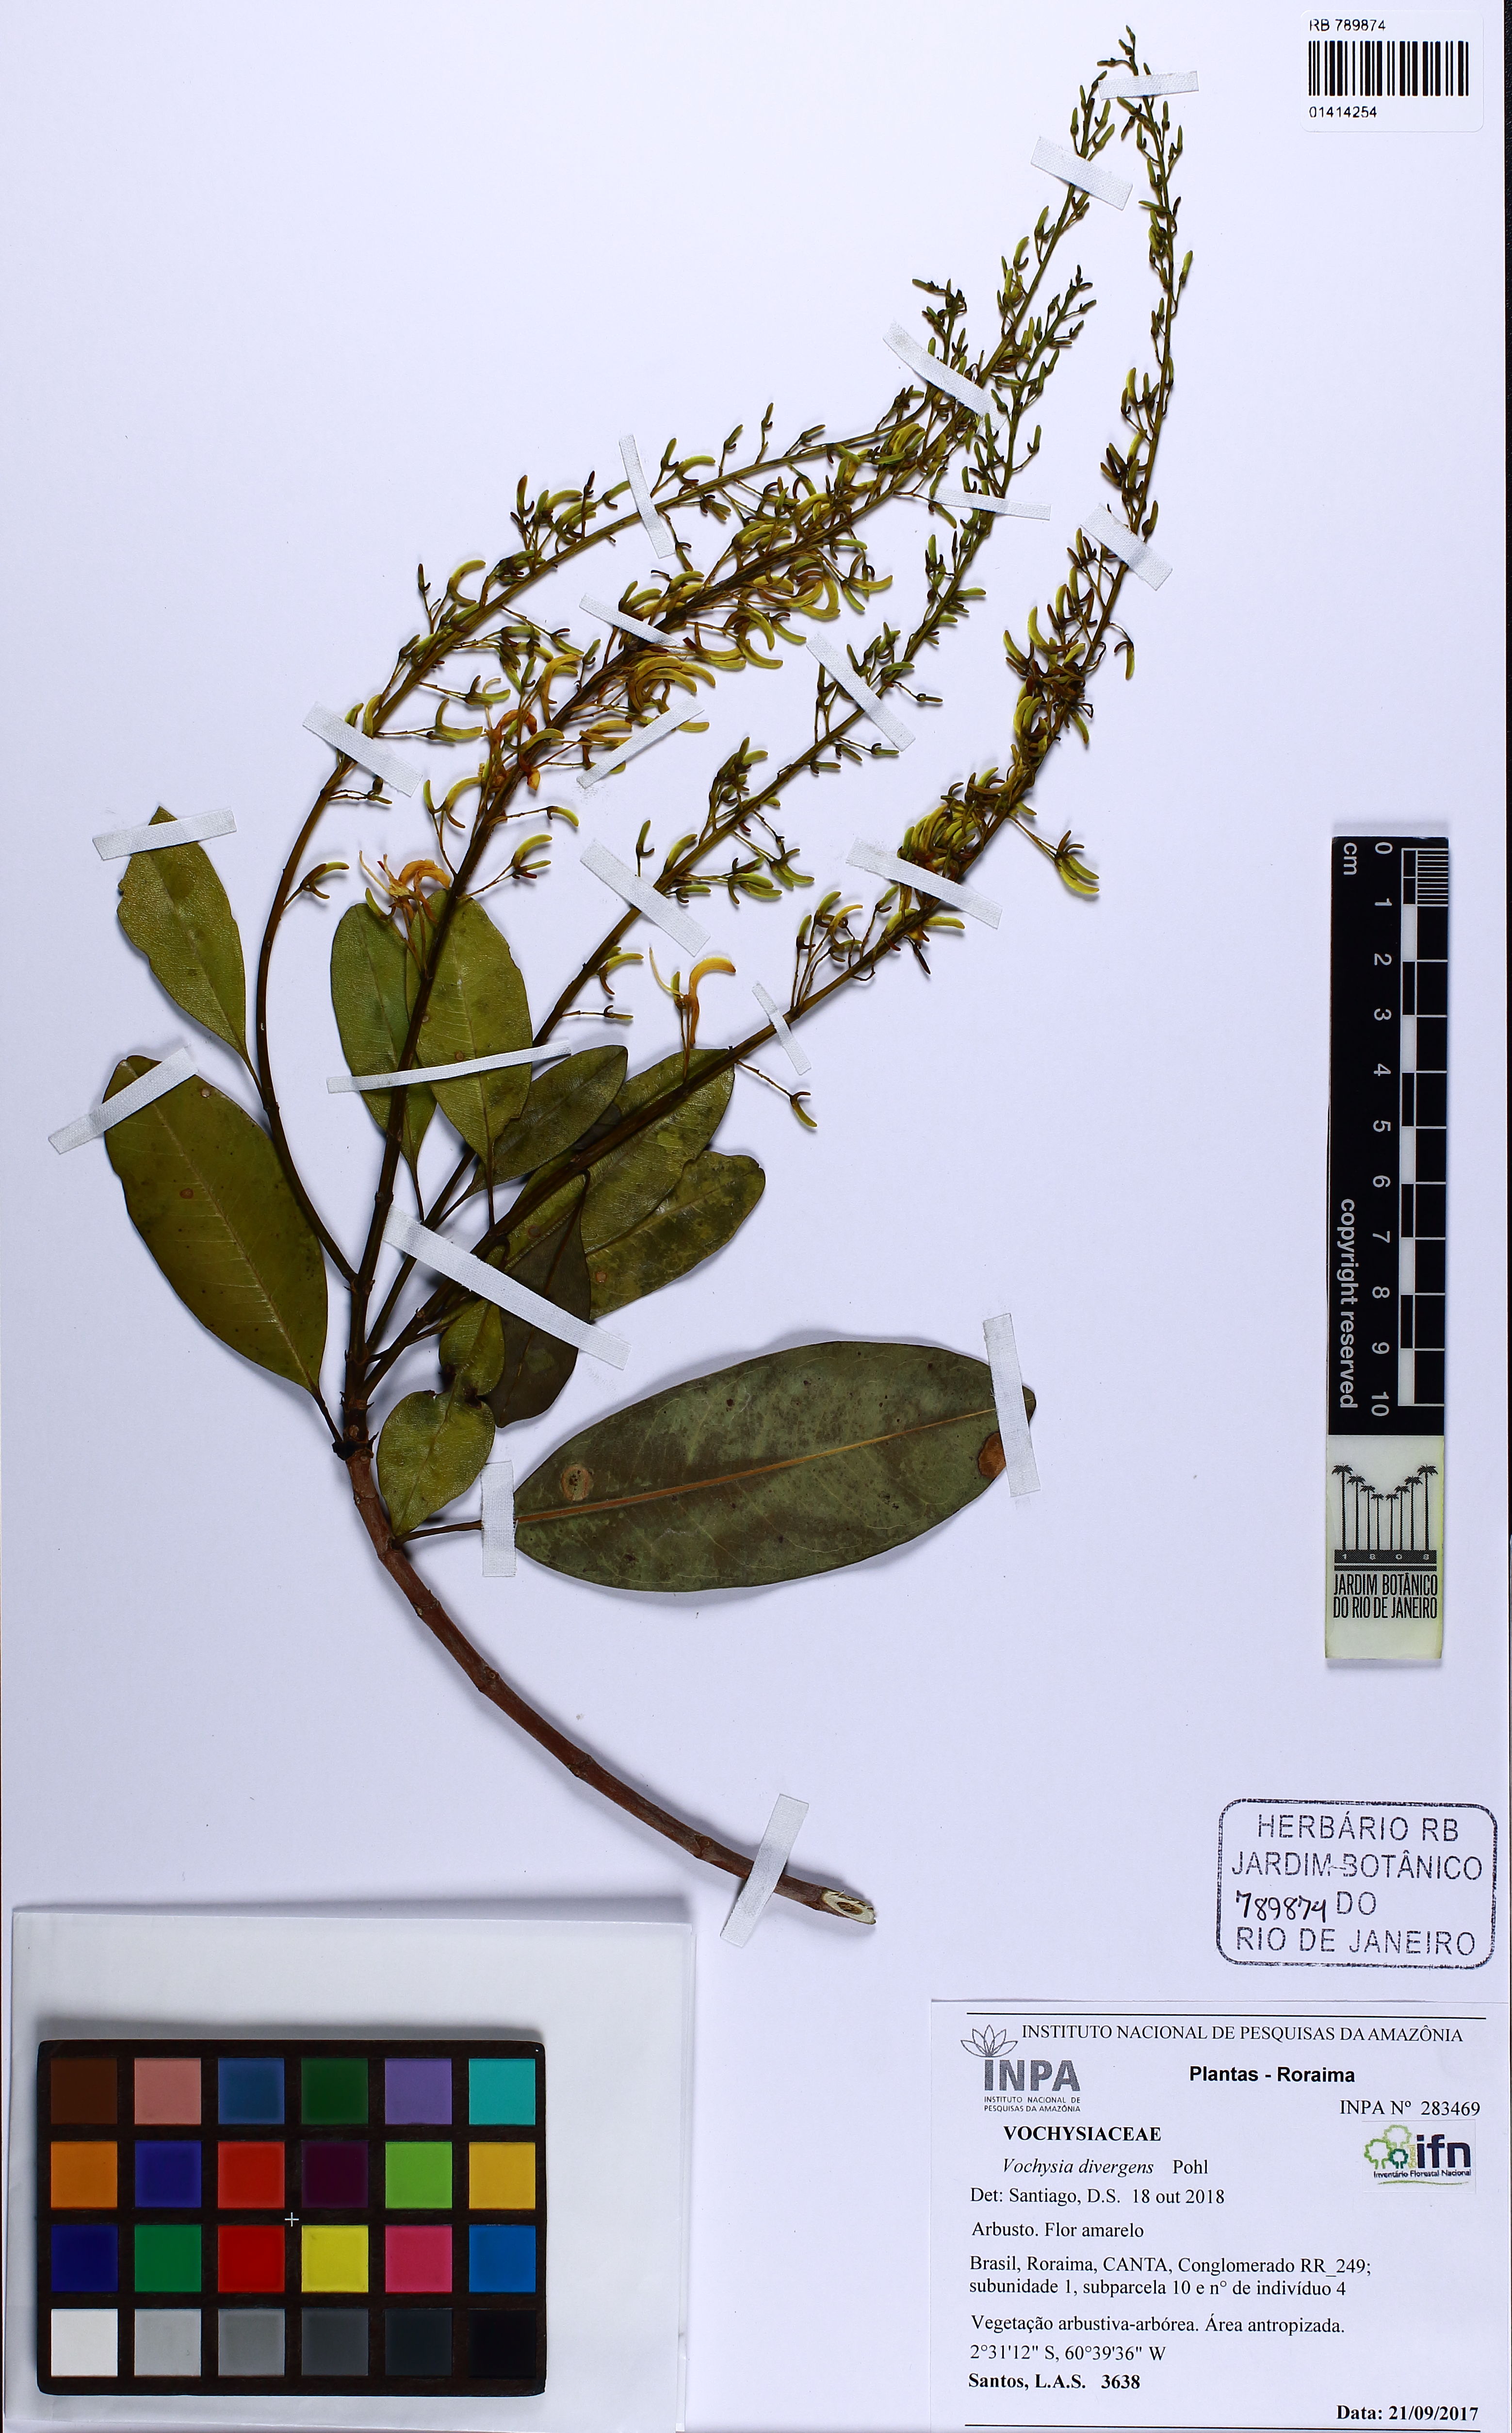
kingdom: Plantae
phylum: Tracheophyta
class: Magnoliopsida
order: Myrtales
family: Vochysiaceae
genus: Vochysia
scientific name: Vochysia divergens
